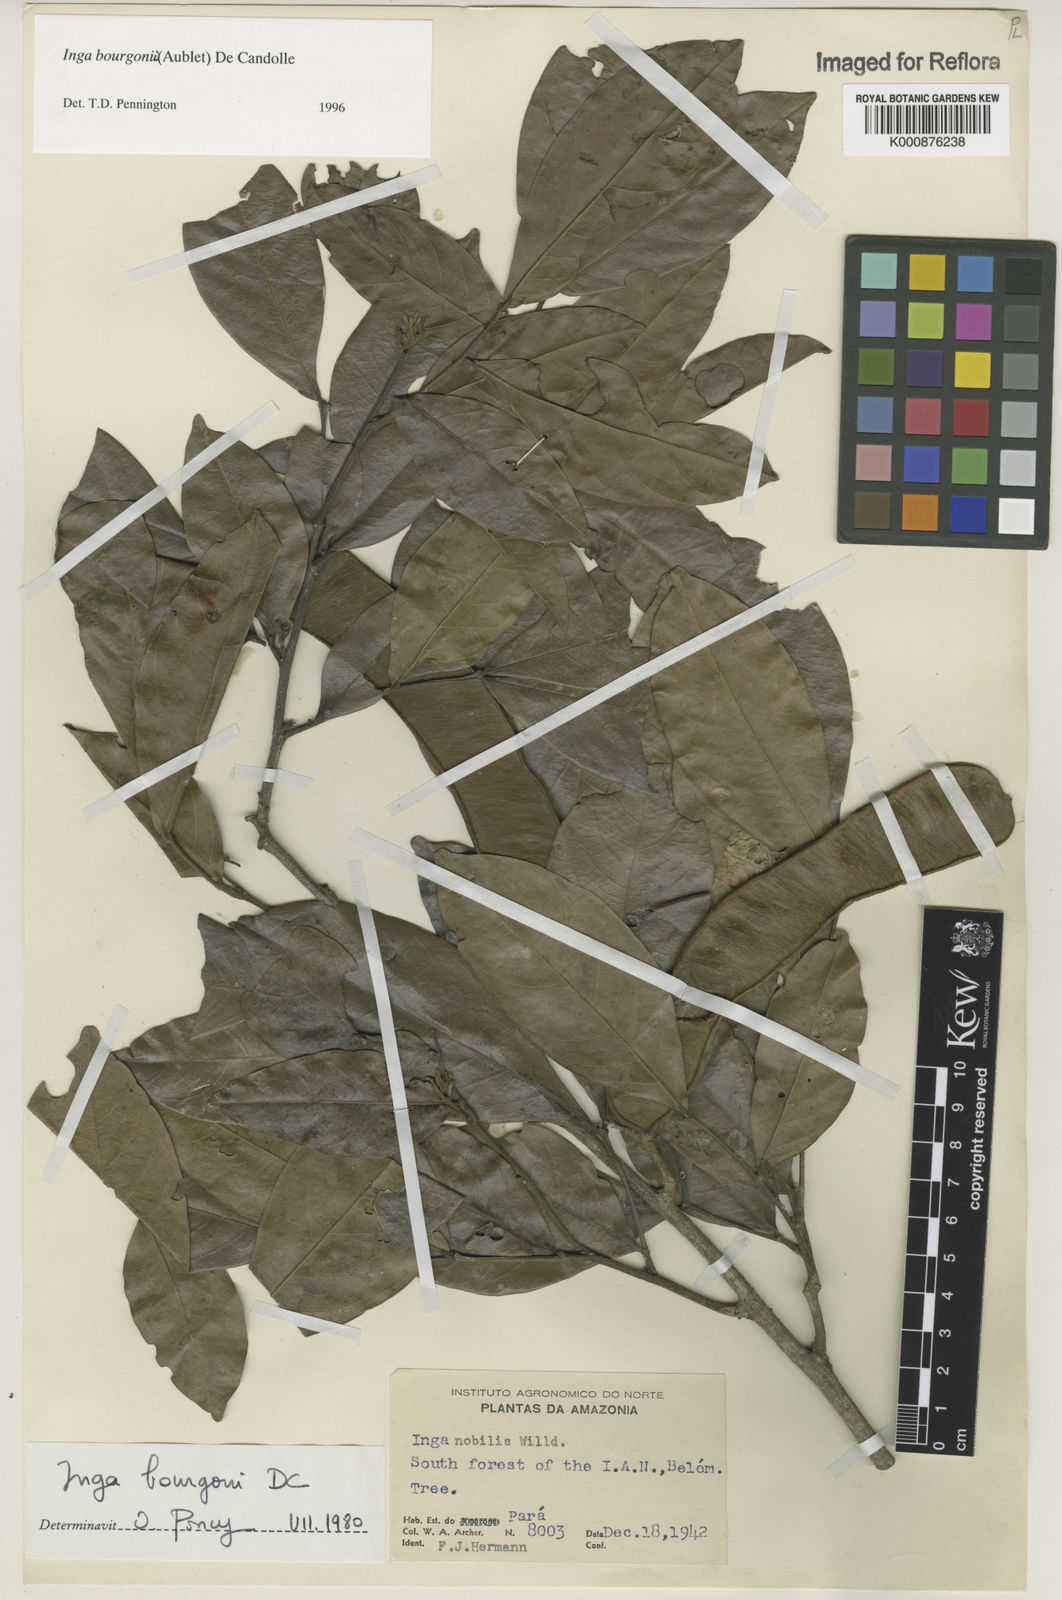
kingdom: Plantae
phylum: Tracheophyta
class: Magnoliopsida
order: Fabales
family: Fabaceae
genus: Inga
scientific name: Inga bourgoni
